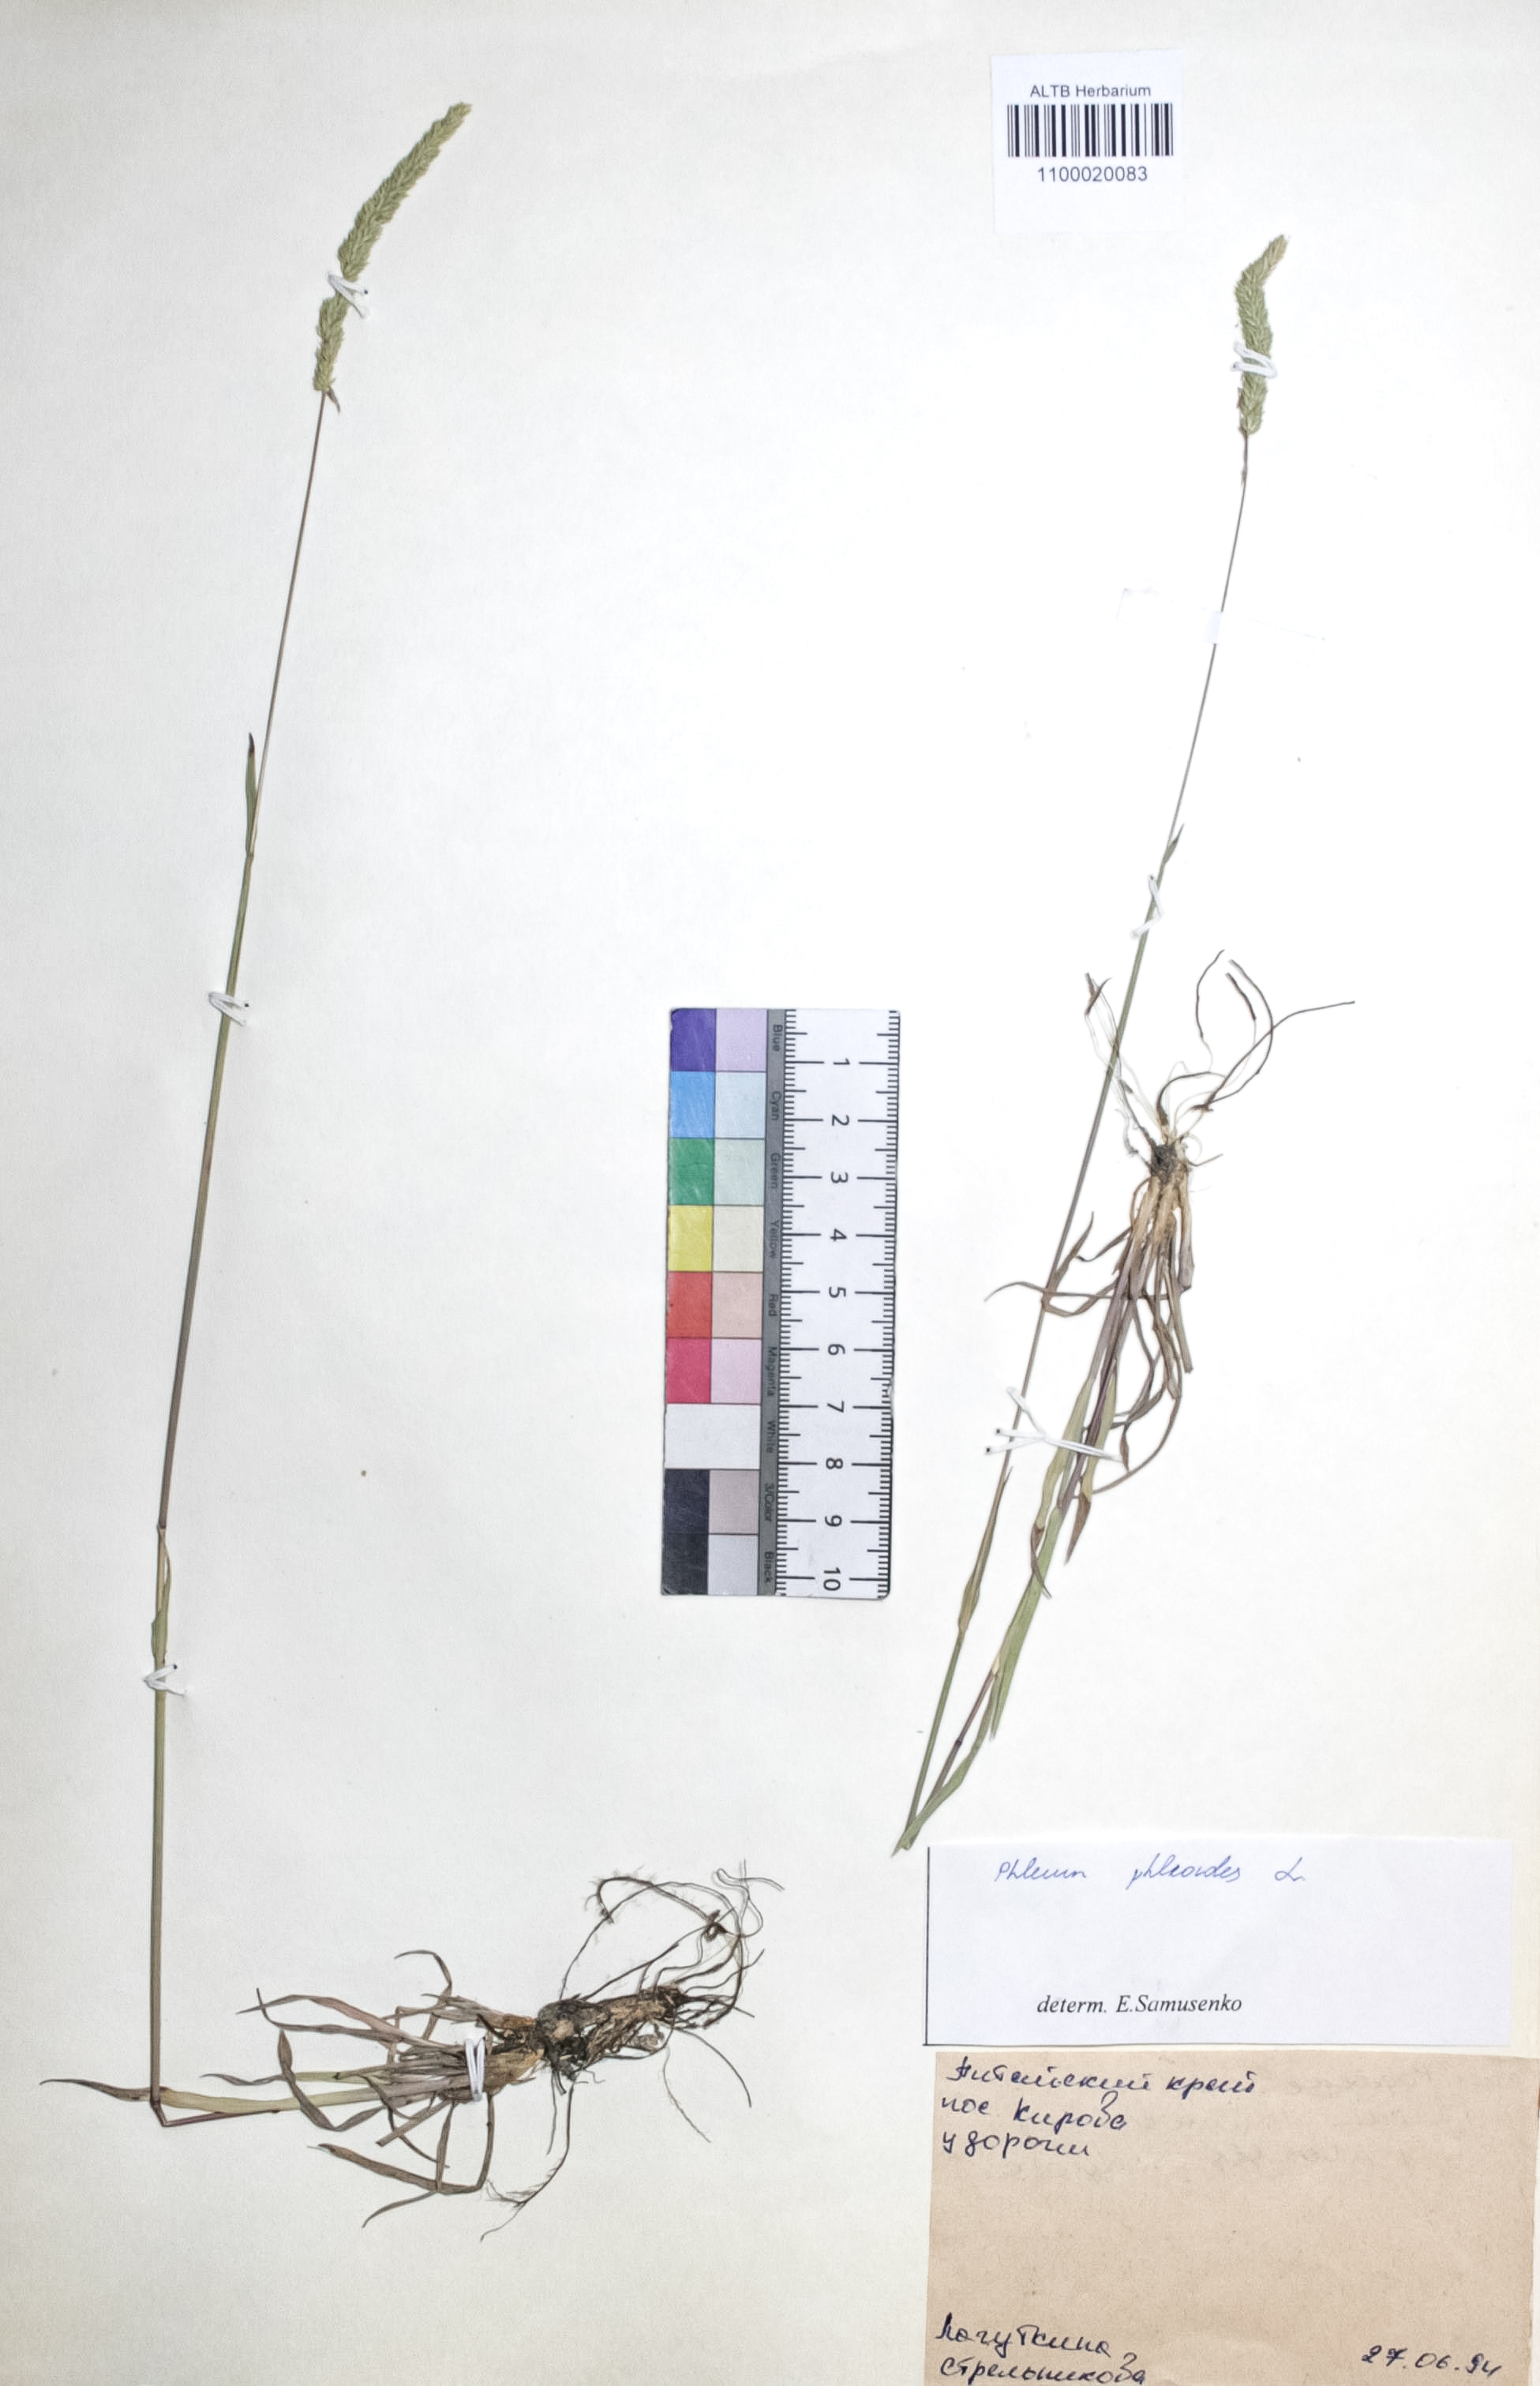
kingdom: Plantae
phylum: Tracheophyta
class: Liliopsida
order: Poales
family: Poaceae
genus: Phleum
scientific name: Phleum phleoides
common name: Purple-stem cat's-tail
